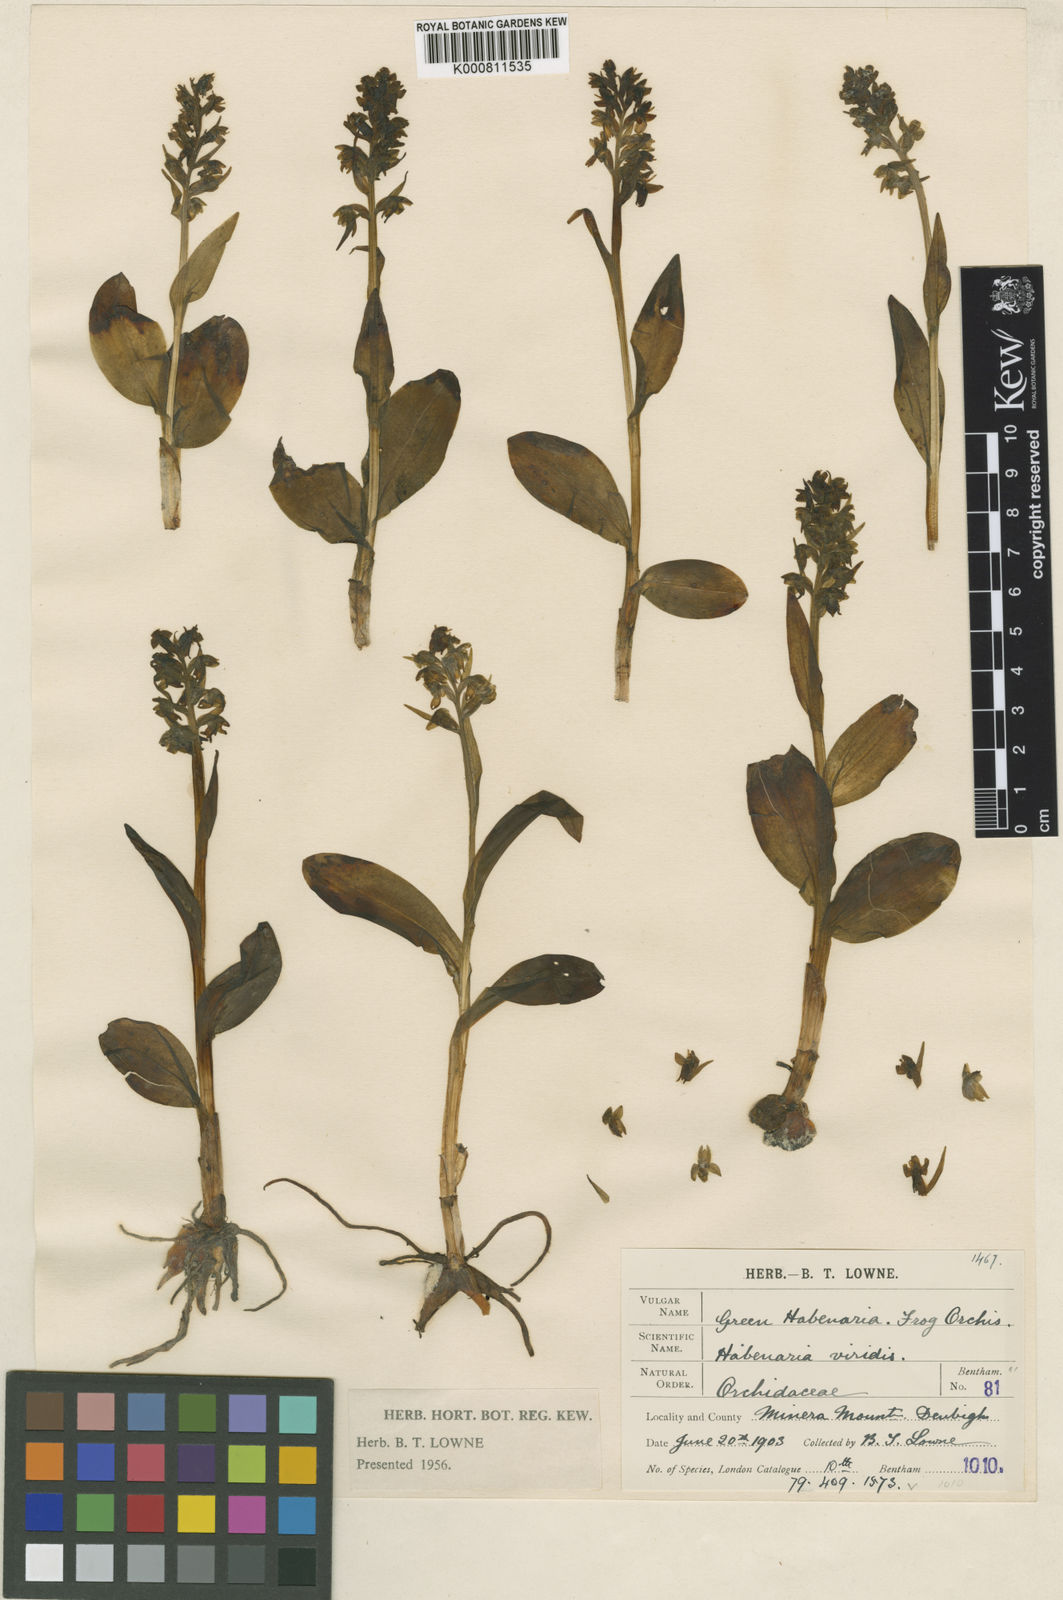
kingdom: Plantae
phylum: Tracheophyta
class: Liliopsida
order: Asparagales
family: Orchidaceae
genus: Dactylorhiza
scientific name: Dactylorhiza viridis
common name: Longbract frog orchid
